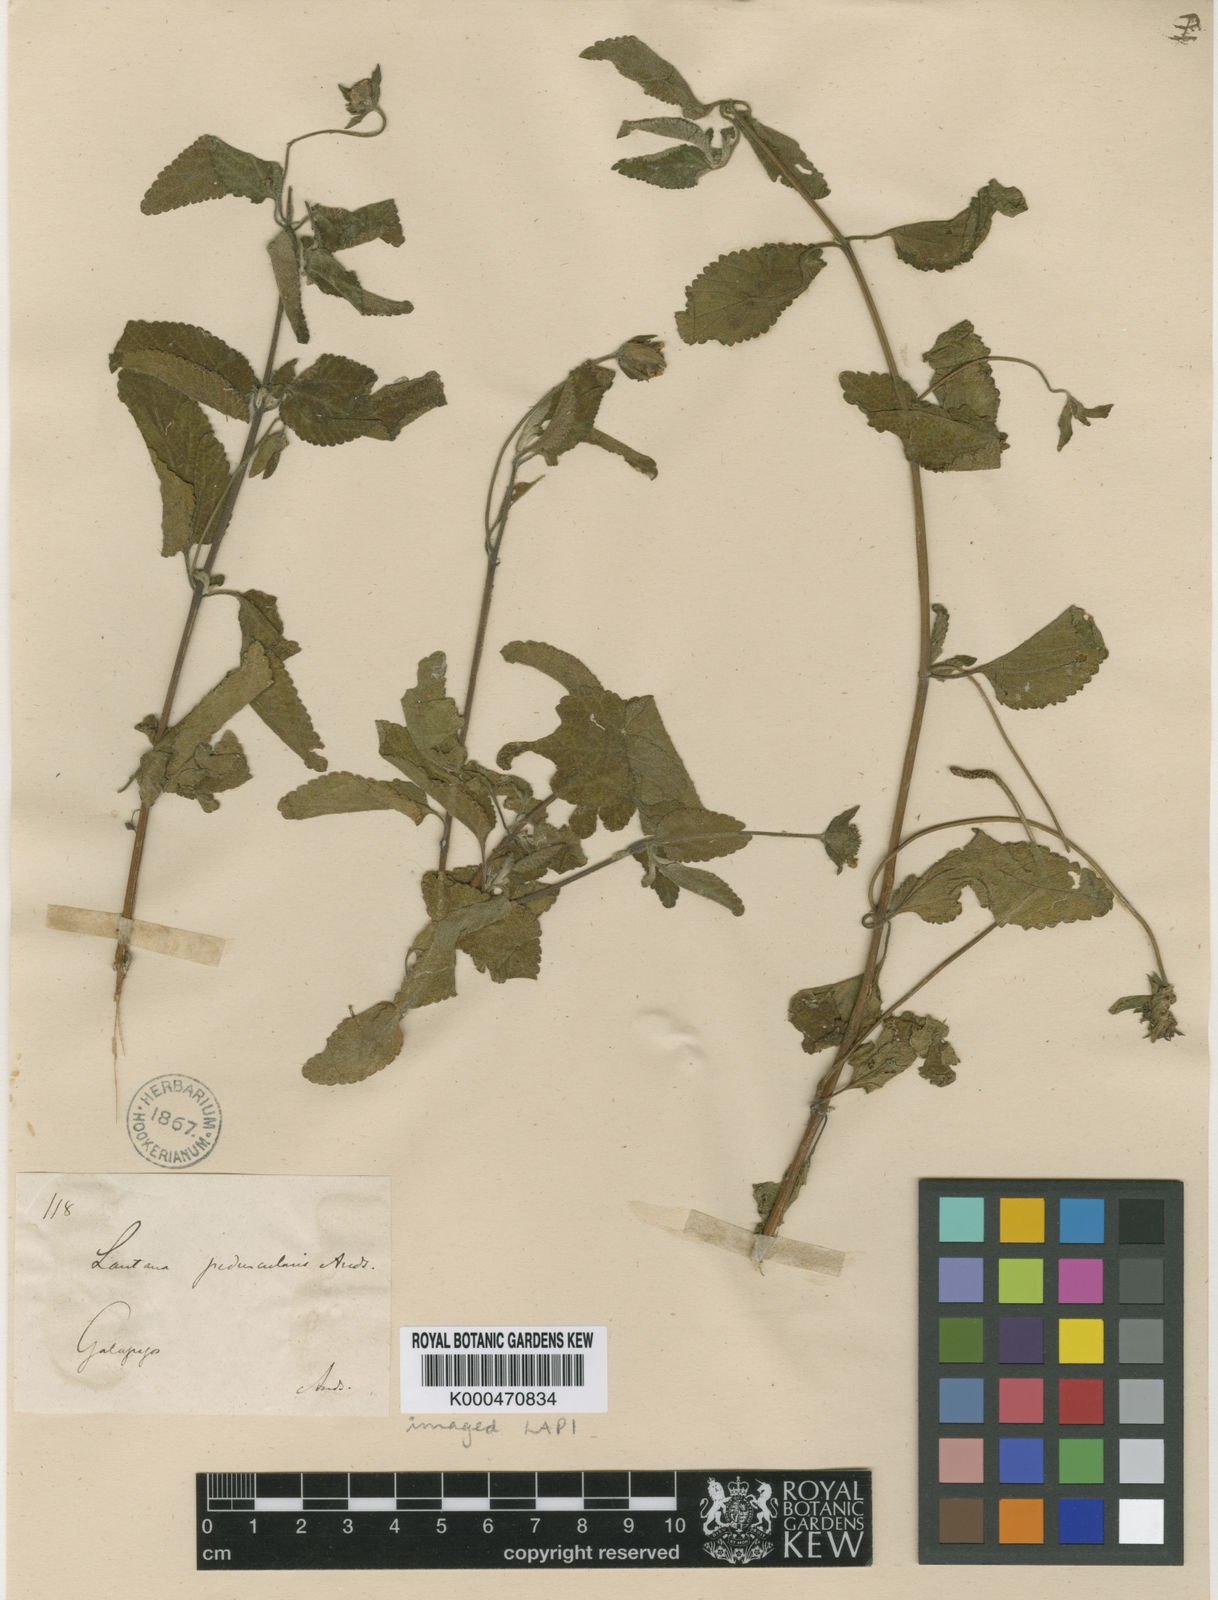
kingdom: Plantae
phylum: Tracheophyta
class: Magnoliopsida
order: Lamiales
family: Verbenaceae
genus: Lantana
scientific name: Lantana peduncularis
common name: Galapagos lantana
